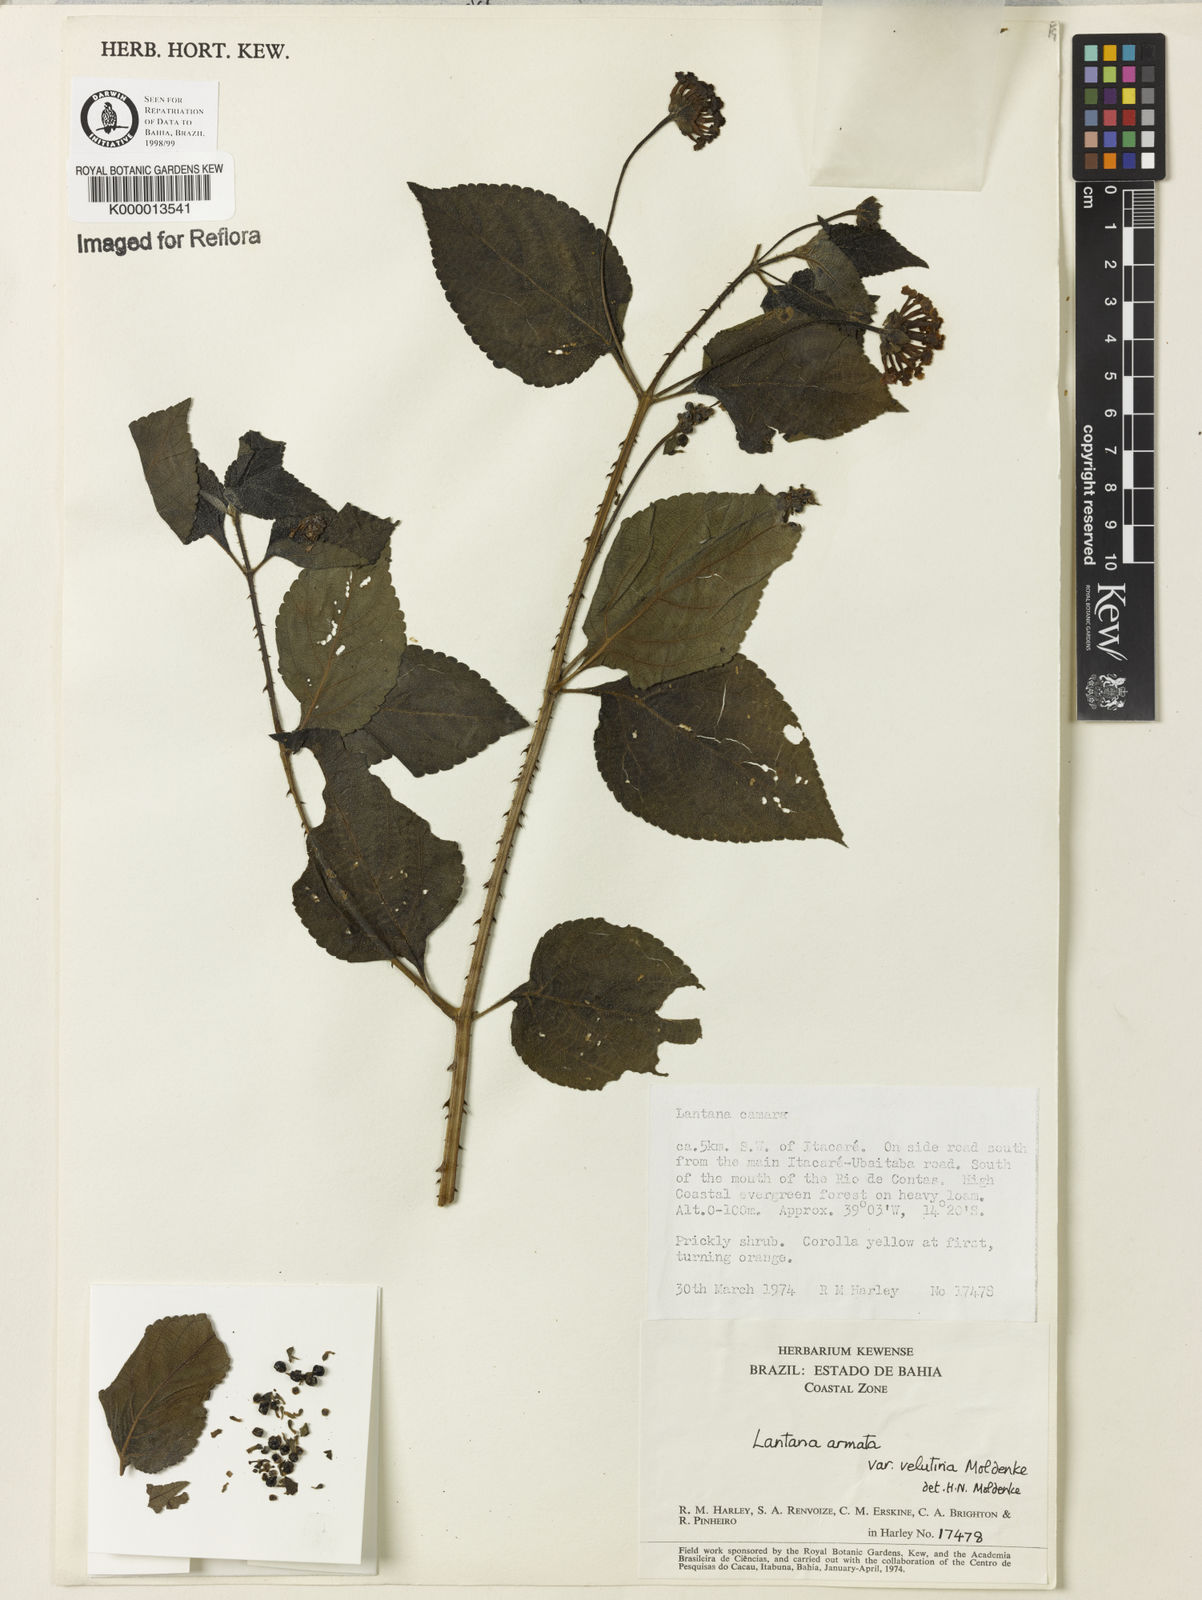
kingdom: Plantae
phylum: Tracheophyta
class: Magnoliopsida
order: Lamiales
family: Verbenaceae
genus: Lantana
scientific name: Lantana armata
